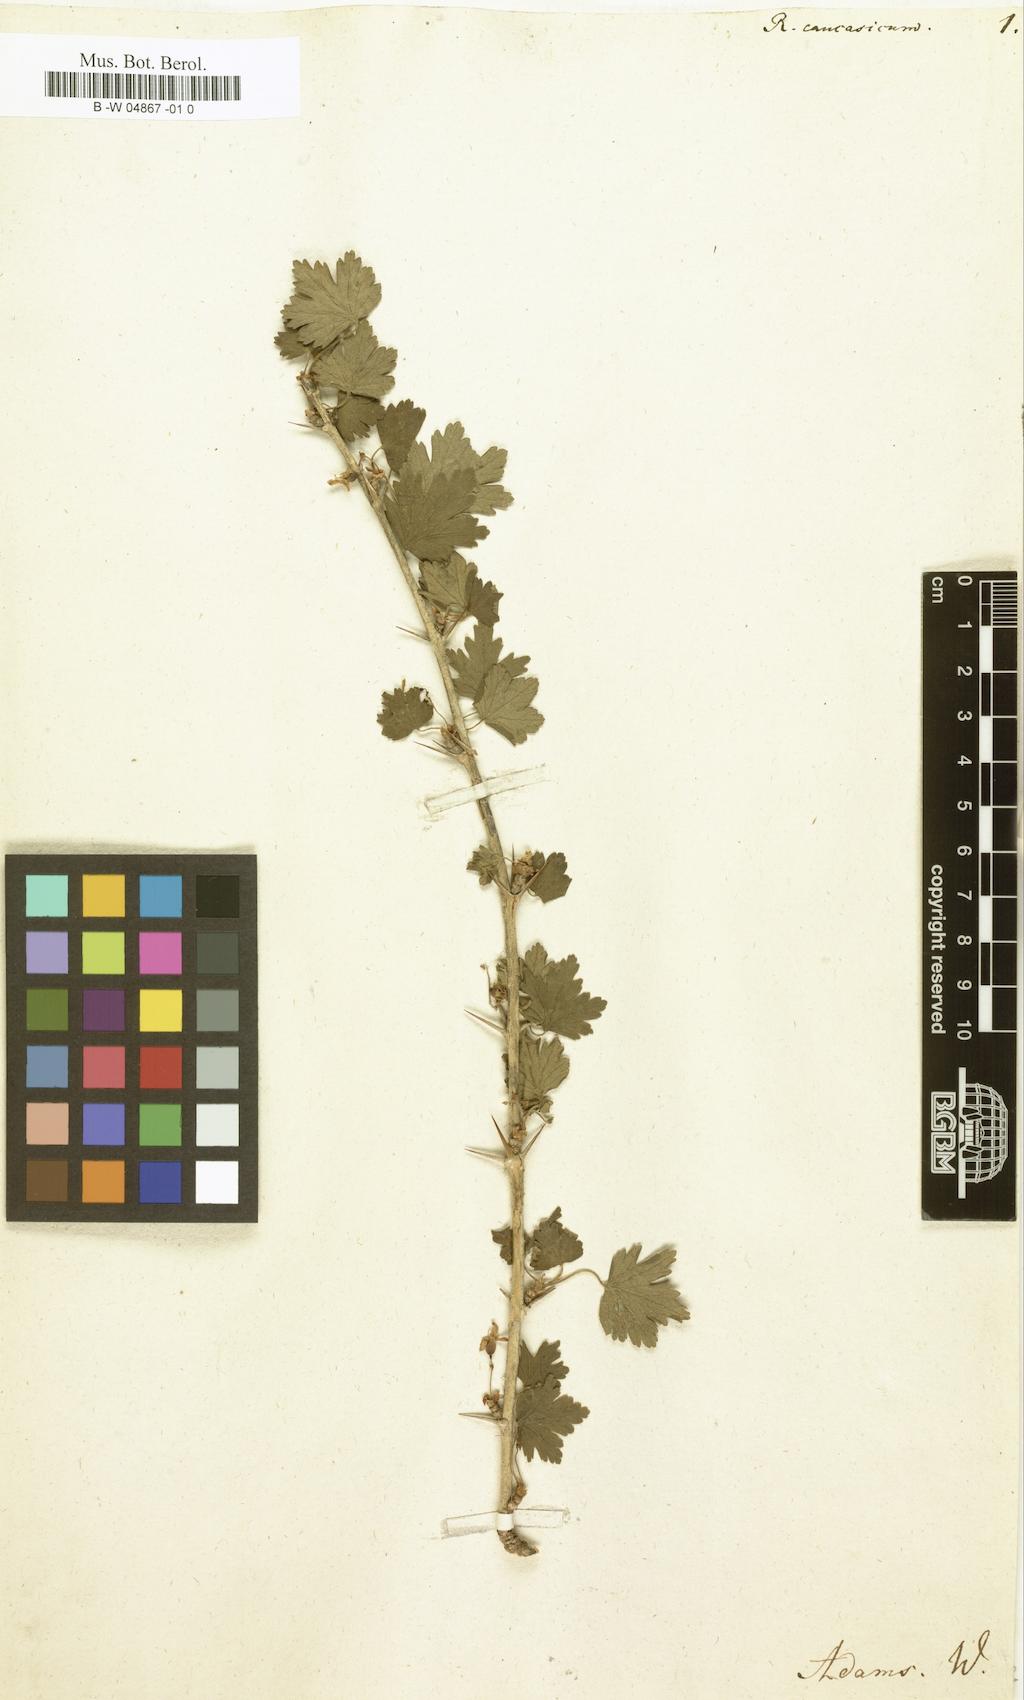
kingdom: Plantae
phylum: Tracheophyta
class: Magnoliopsida
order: Saxifragales
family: Grossulariaceae
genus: Ribes
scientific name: Ribes
